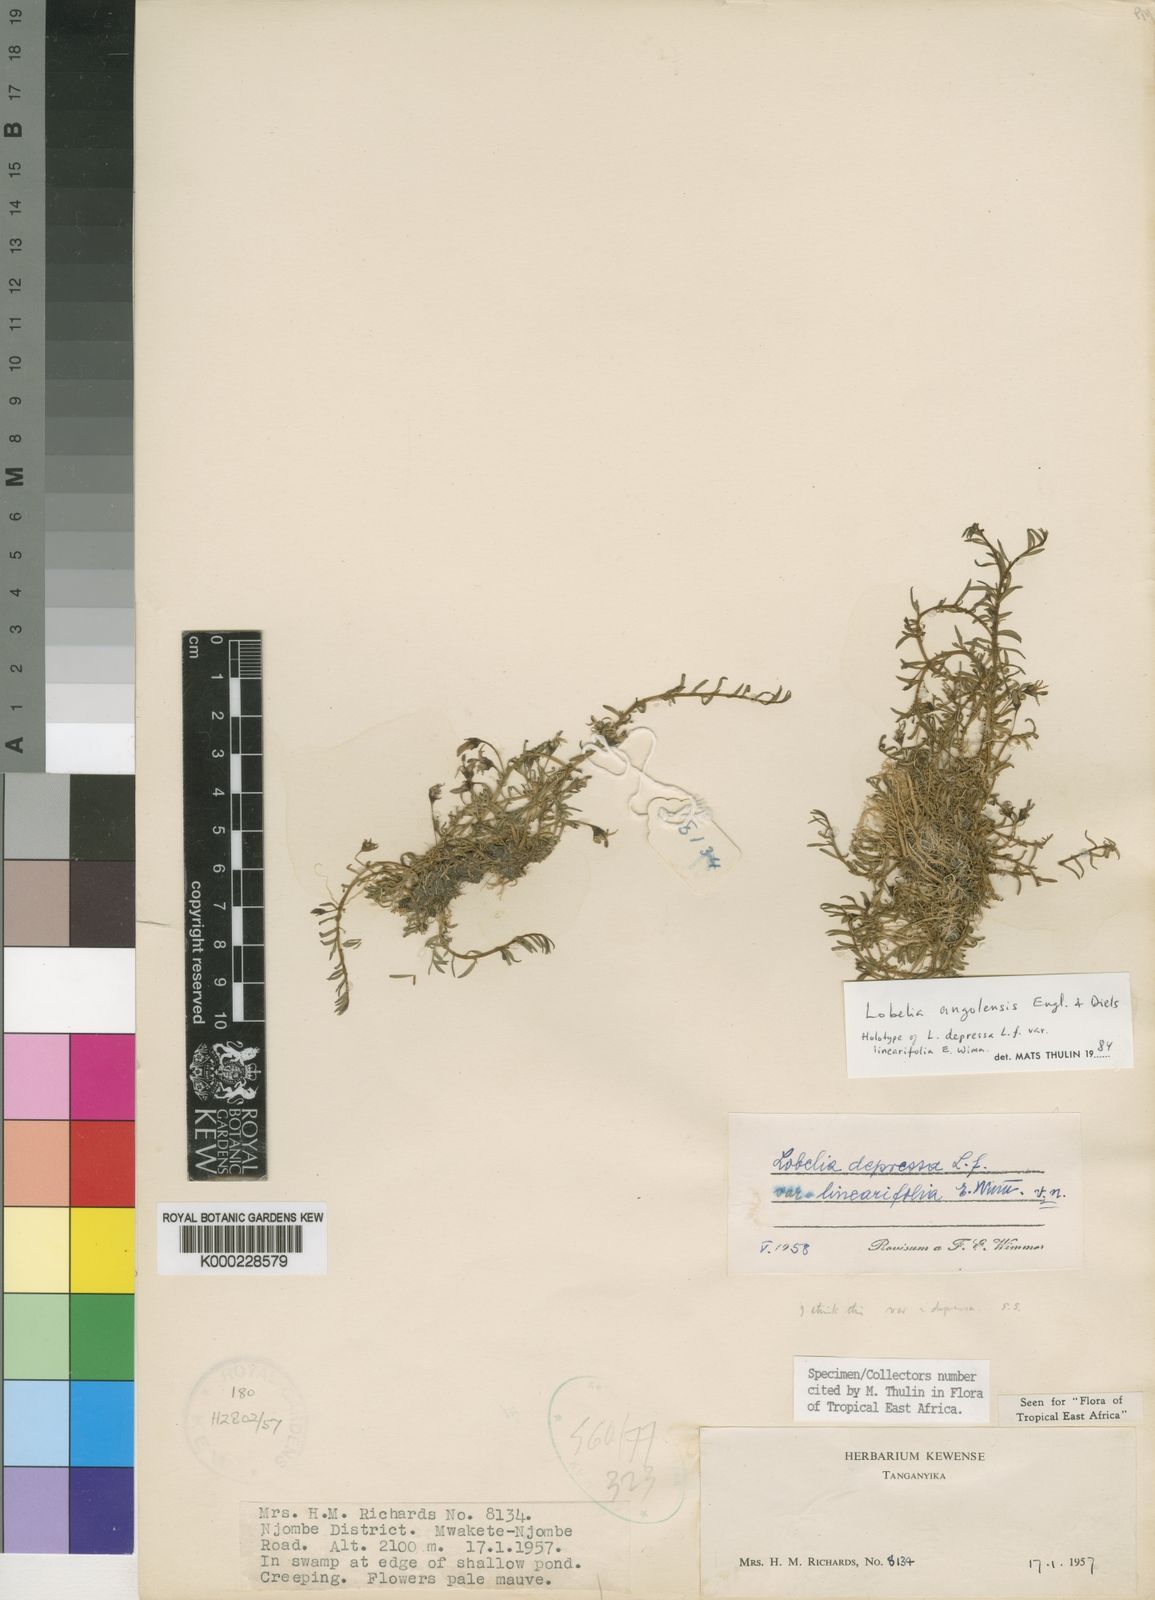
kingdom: Plantae
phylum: Tracheophyta
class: Magnoliopsida
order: Asterales
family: Campanulaceae
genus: Lobelia
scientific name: Lobelia sonderiana
